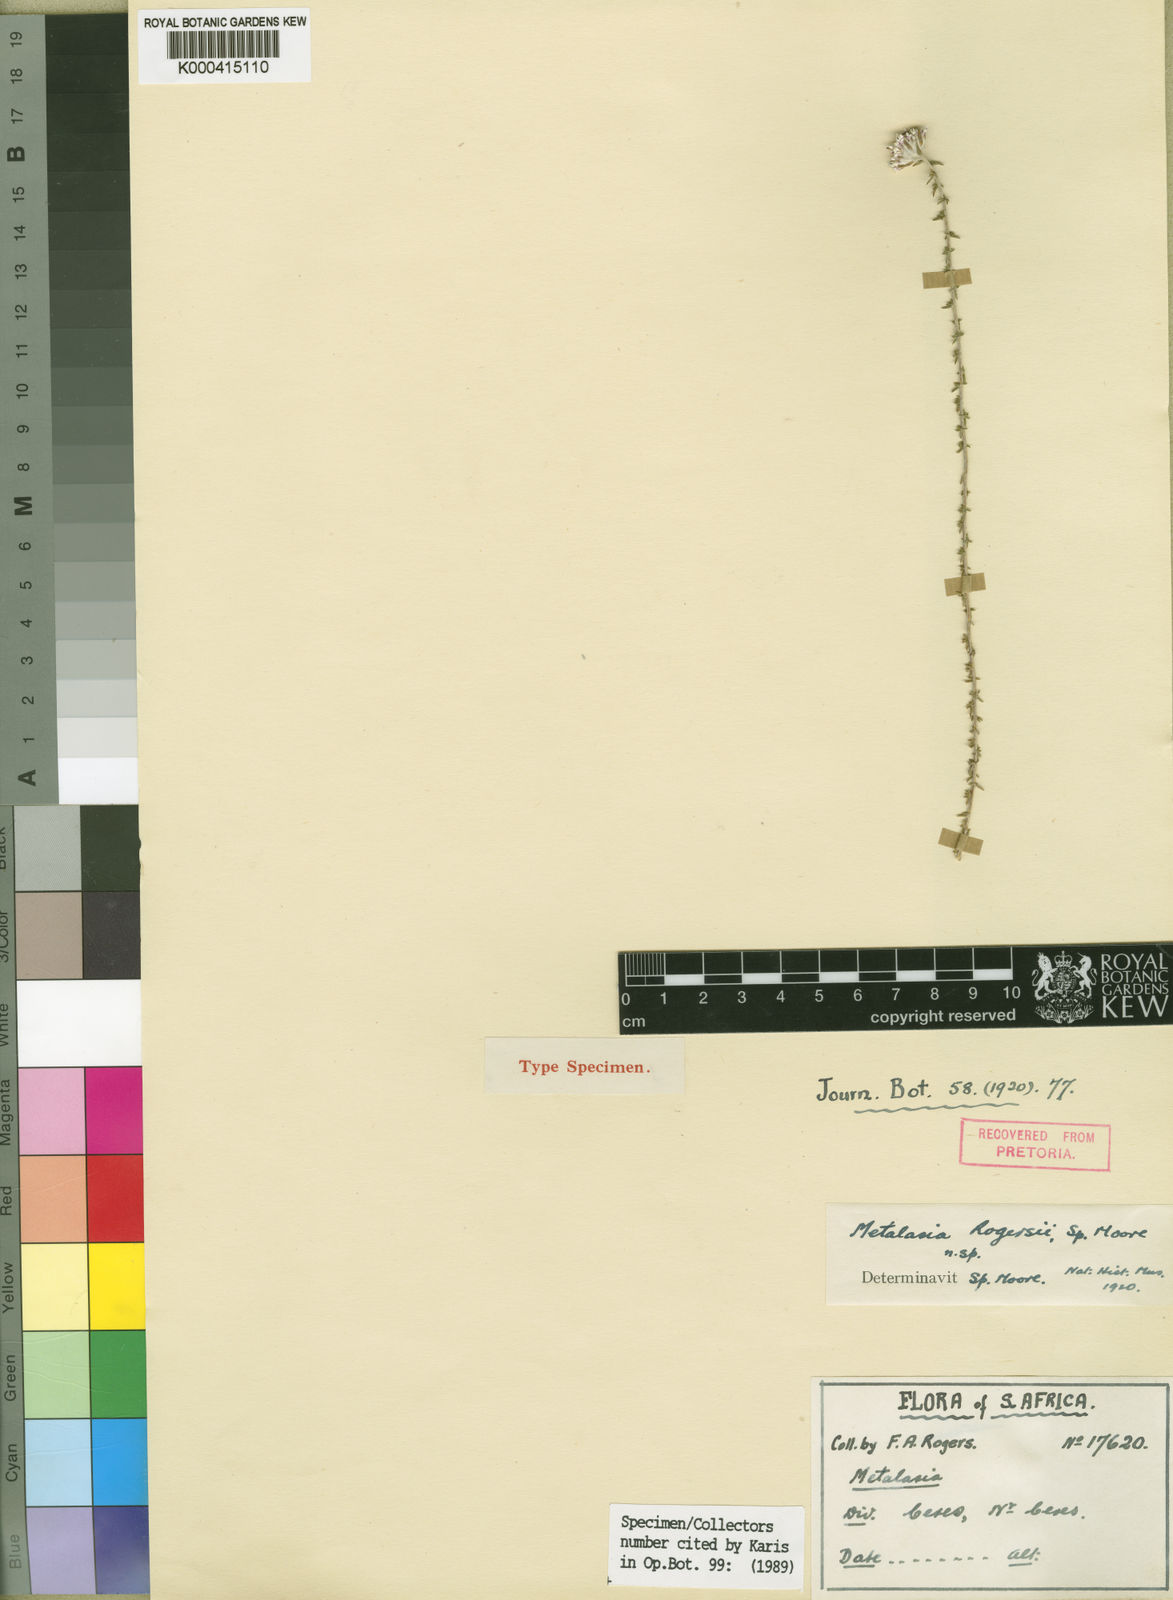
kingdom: Plantae
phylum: Tracheophyta
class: Magnoliopsida
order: Asterales
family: Asteraceae
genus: Metalasia
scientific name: Metalasia rogersii
